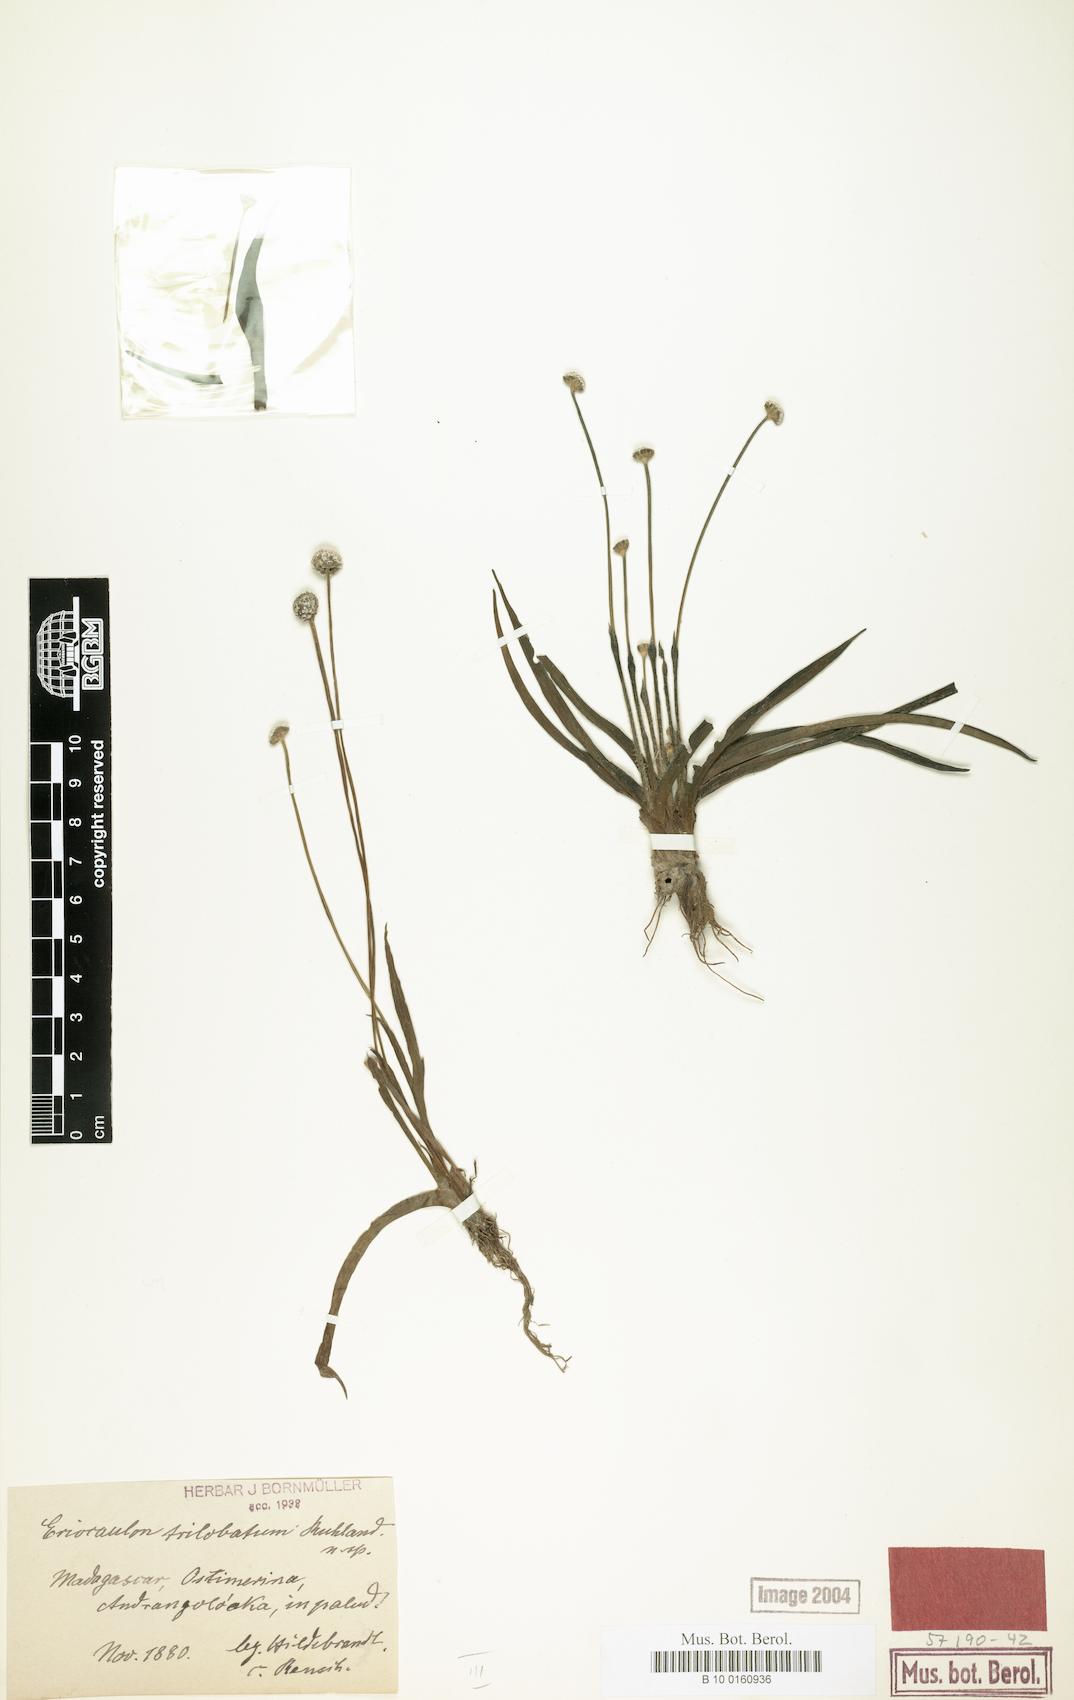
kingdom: Plantae
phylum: Tracheophyta
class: Liliopsida
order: Poales
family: Eriocaulaceae
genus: Eriocaulon
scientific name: Eriocaulon trilobatum
